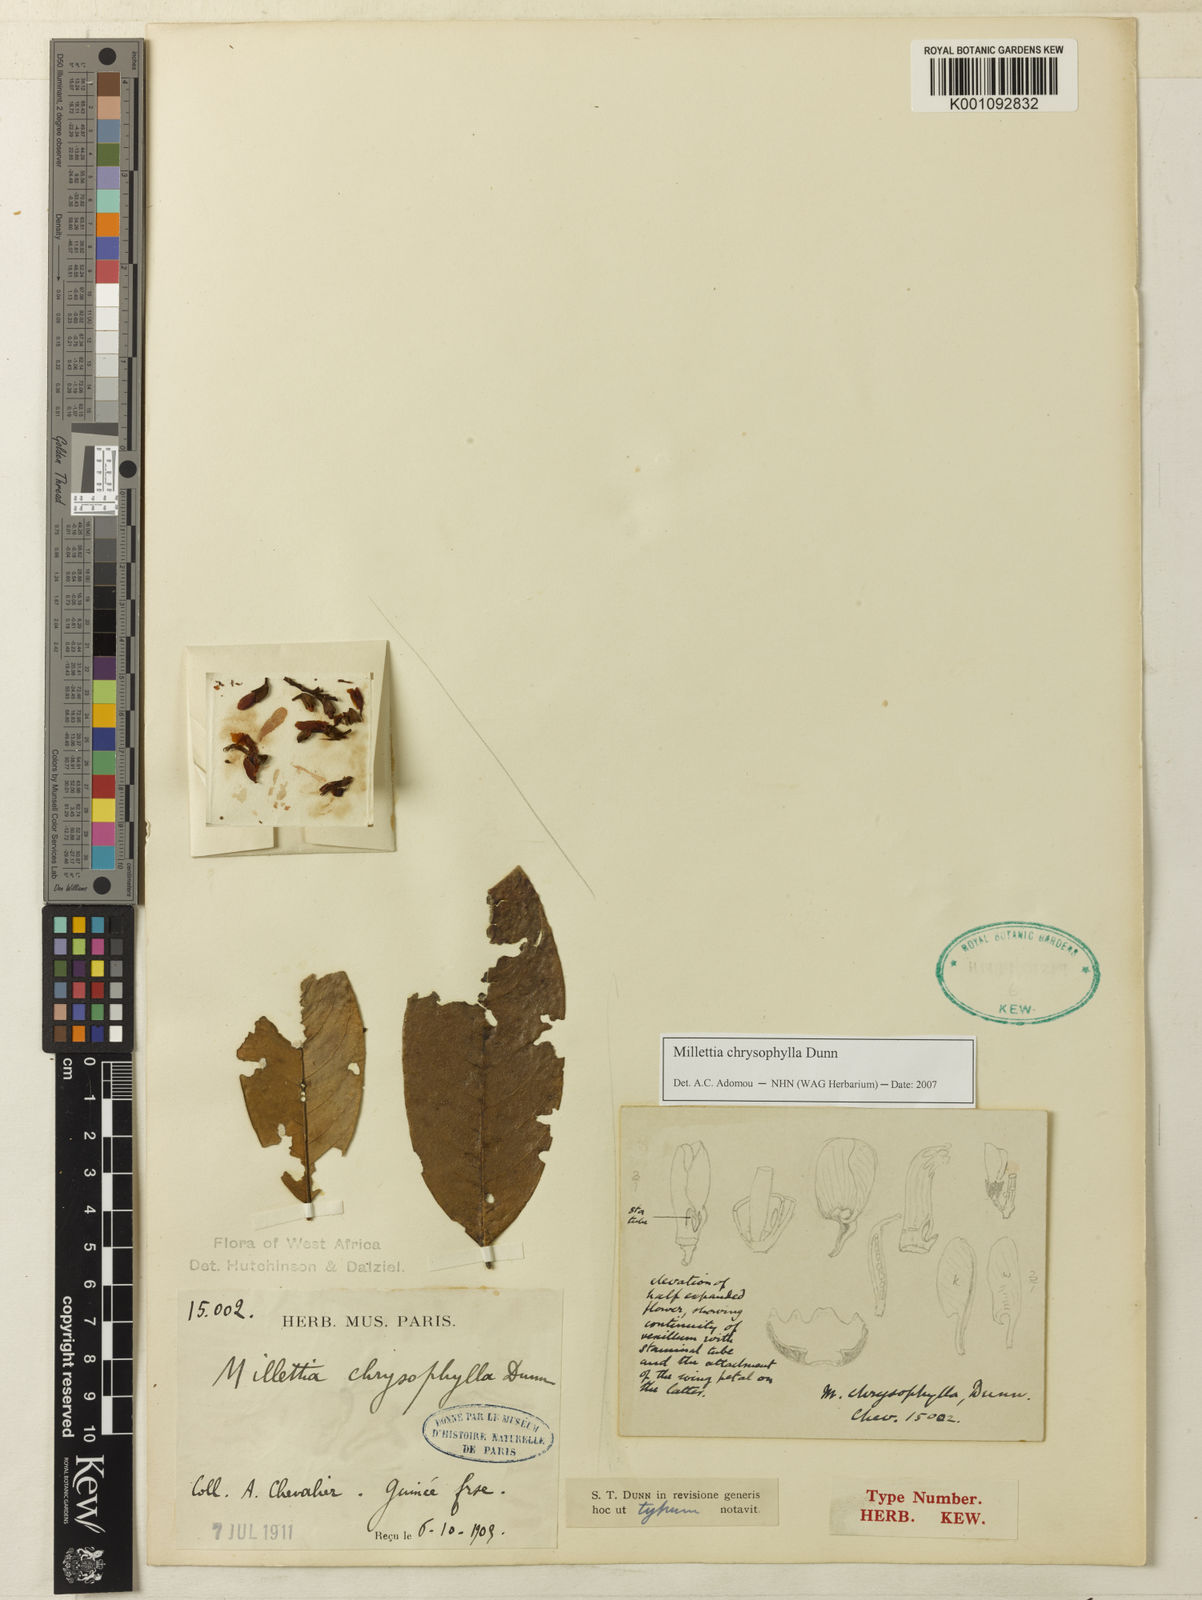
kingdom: Plantae
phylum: Tracheophyta
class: Magnoliopsida
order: Fabales
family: Fabaceae
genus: Millettia
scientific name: Millettia chrysophylla
